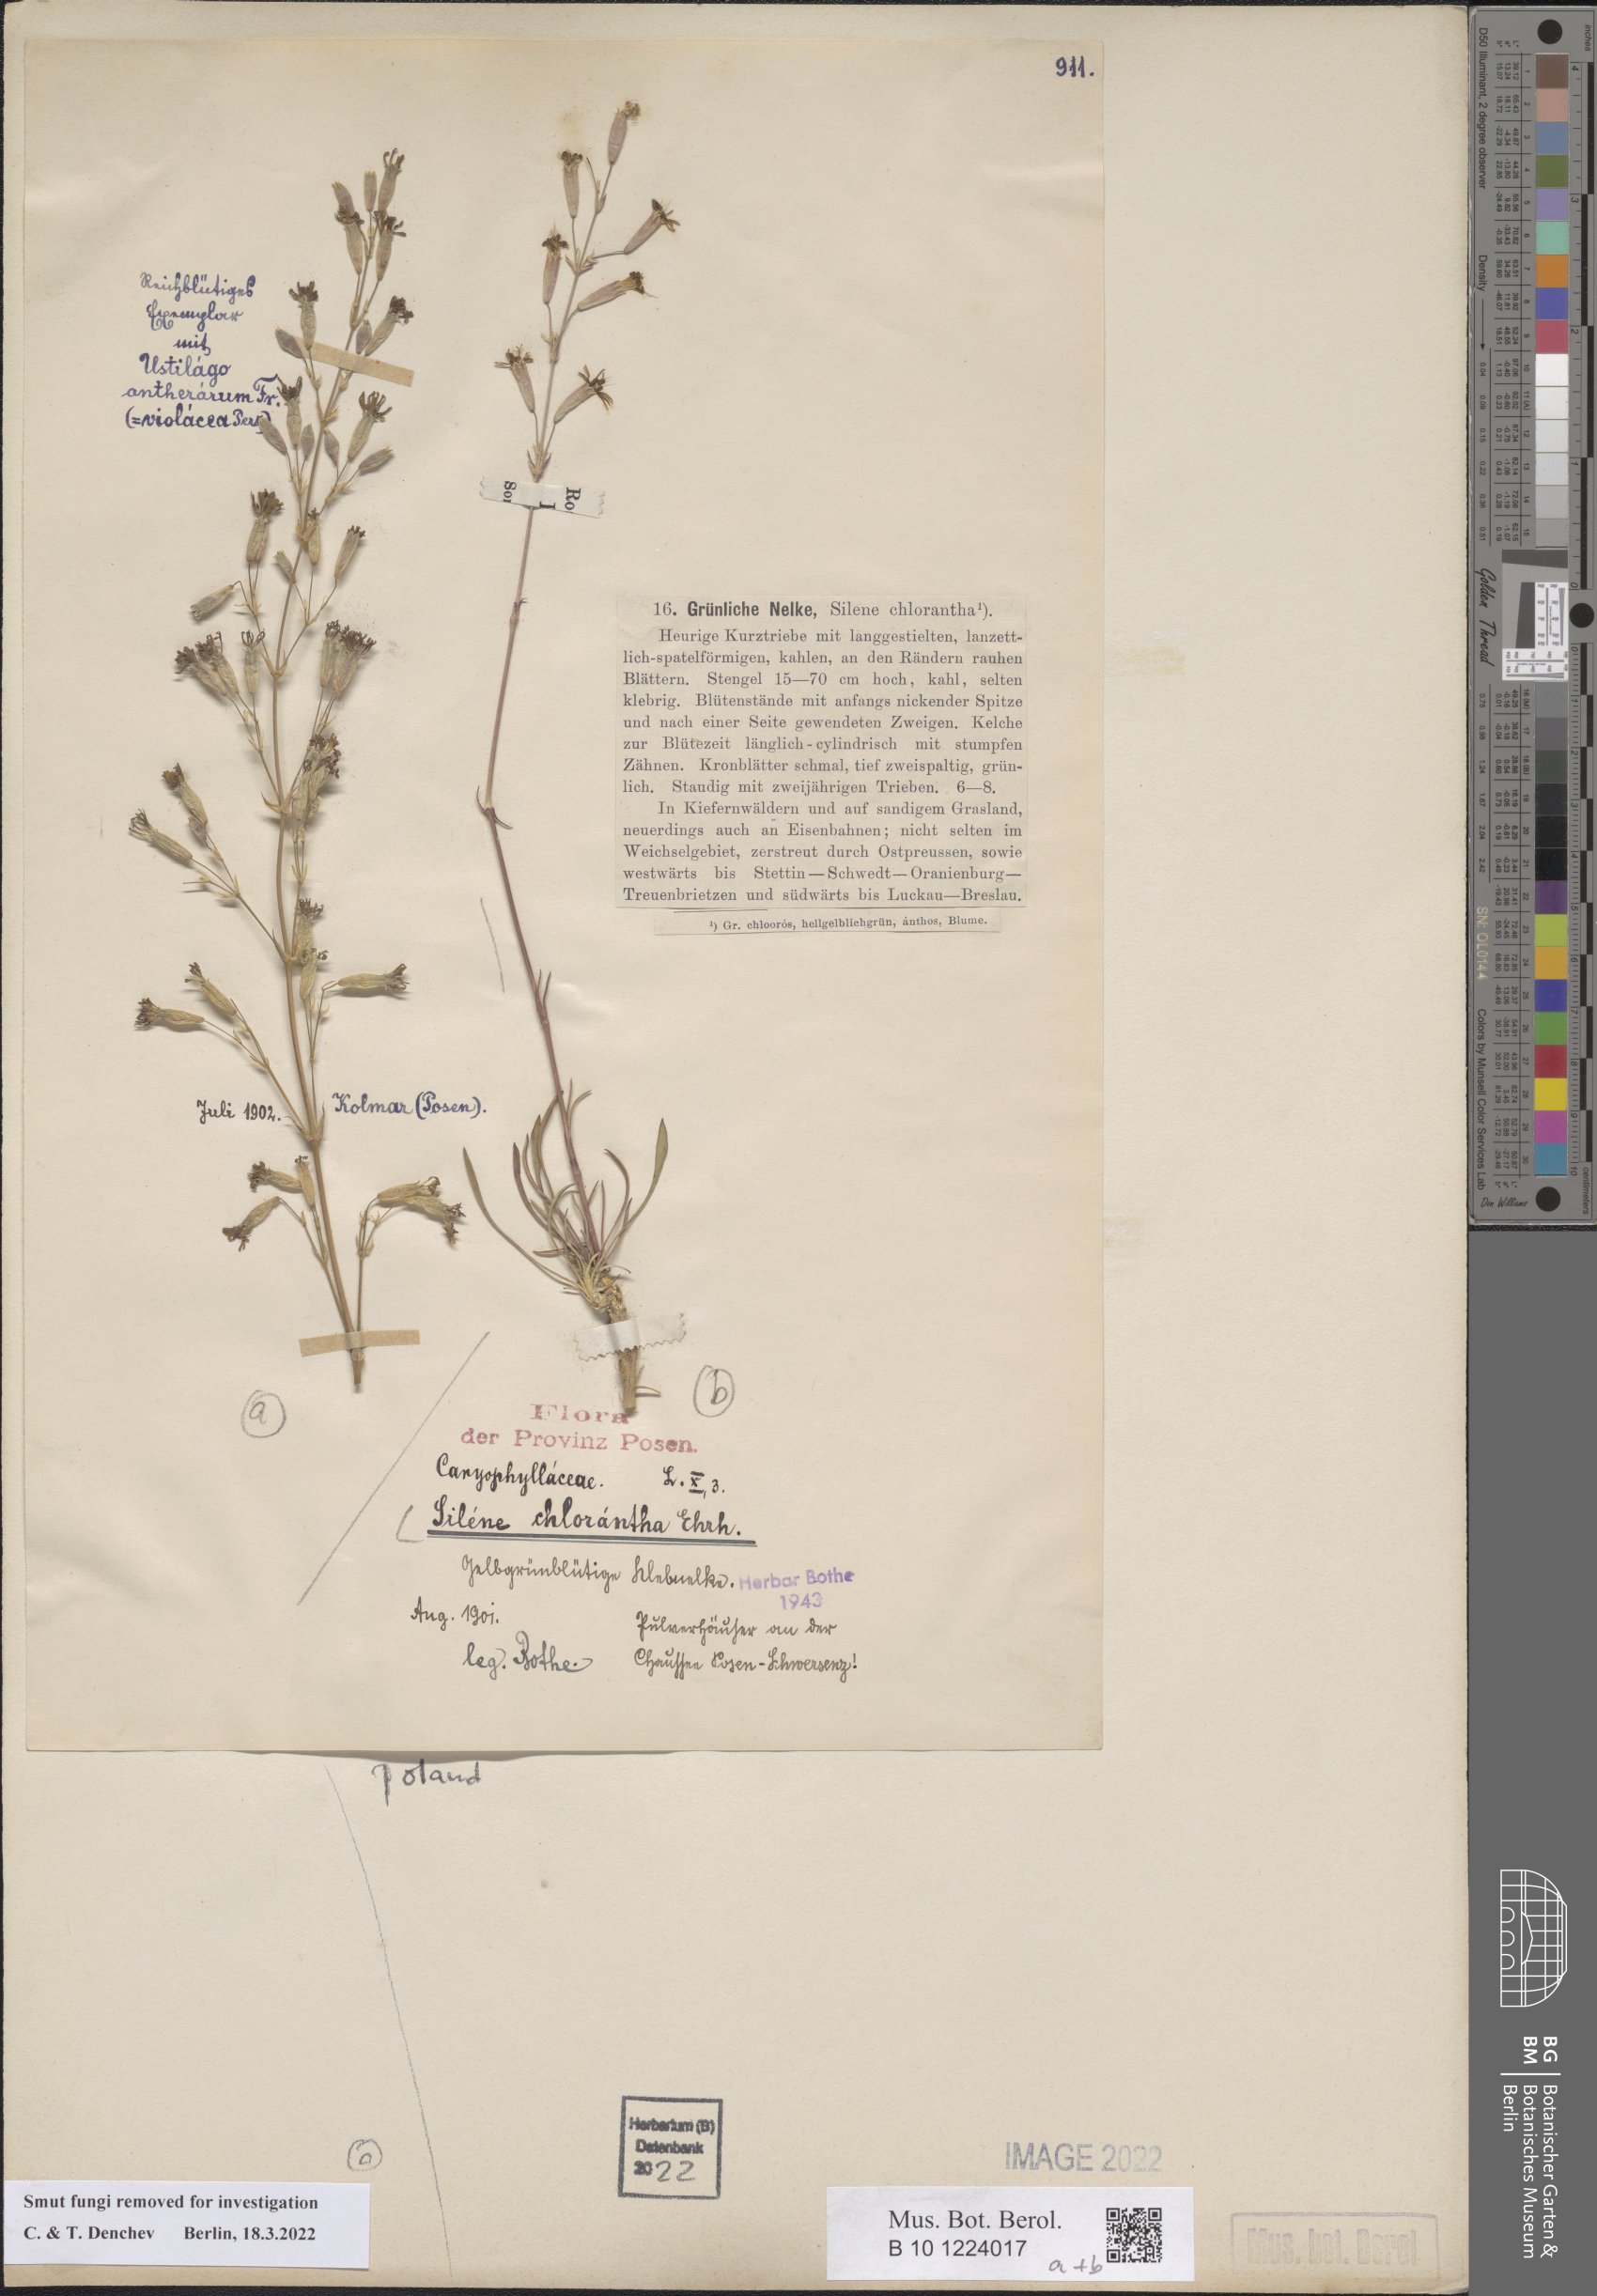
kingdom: Plantae
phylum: Tracheophyta
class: Magnoliopsida
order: Caryophyllales
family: Caryophyllaceae
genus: Silene
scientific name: Silene chlorantha
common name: Yellowgreen catchfly
